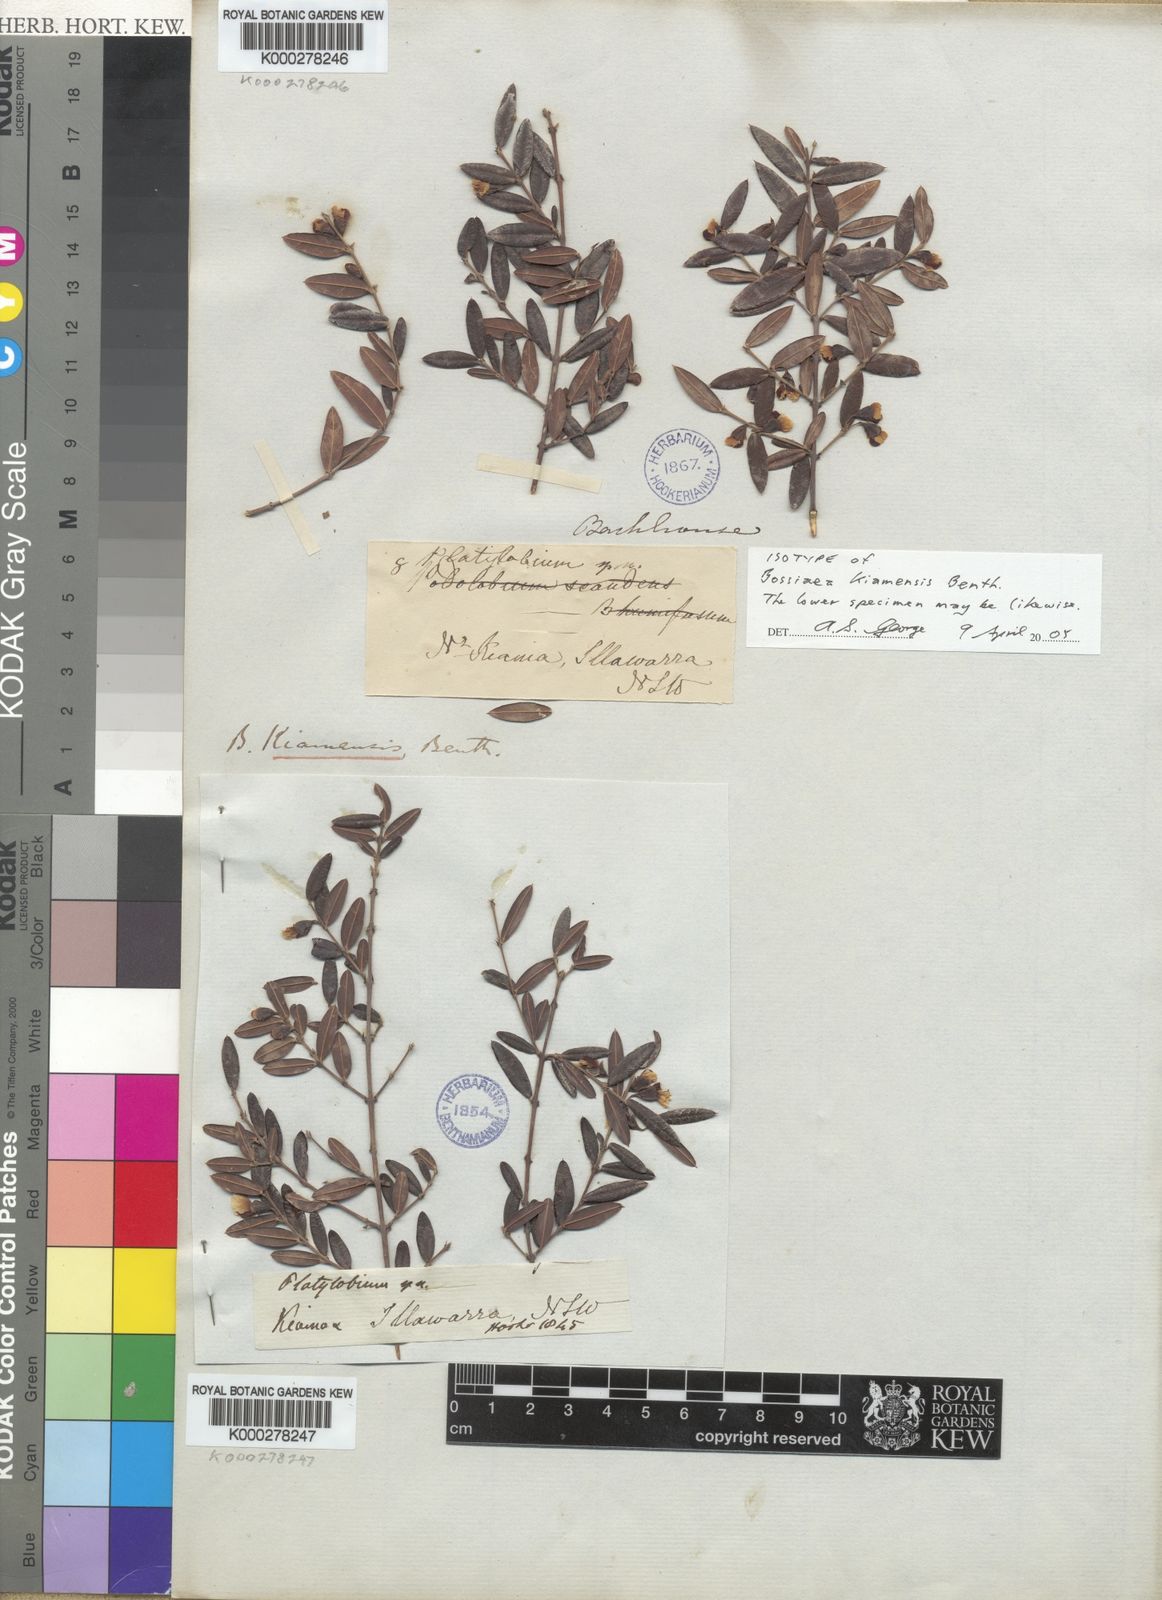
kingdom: Plantae
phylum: Tracheophyta
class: Magnoliopsida
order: Fabales
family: Fabaceae
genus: Bossiaea
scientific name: Bossiaea kiamensis
